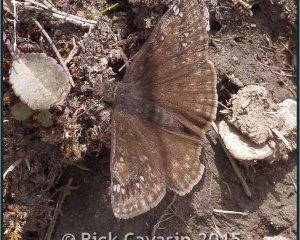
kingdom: Animalia
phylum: Arthropoda
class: Insecta
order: Lepidoptera
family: Hesperiidae
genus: Gesta
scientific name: Gesta
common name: Juvenal's Duskywing
